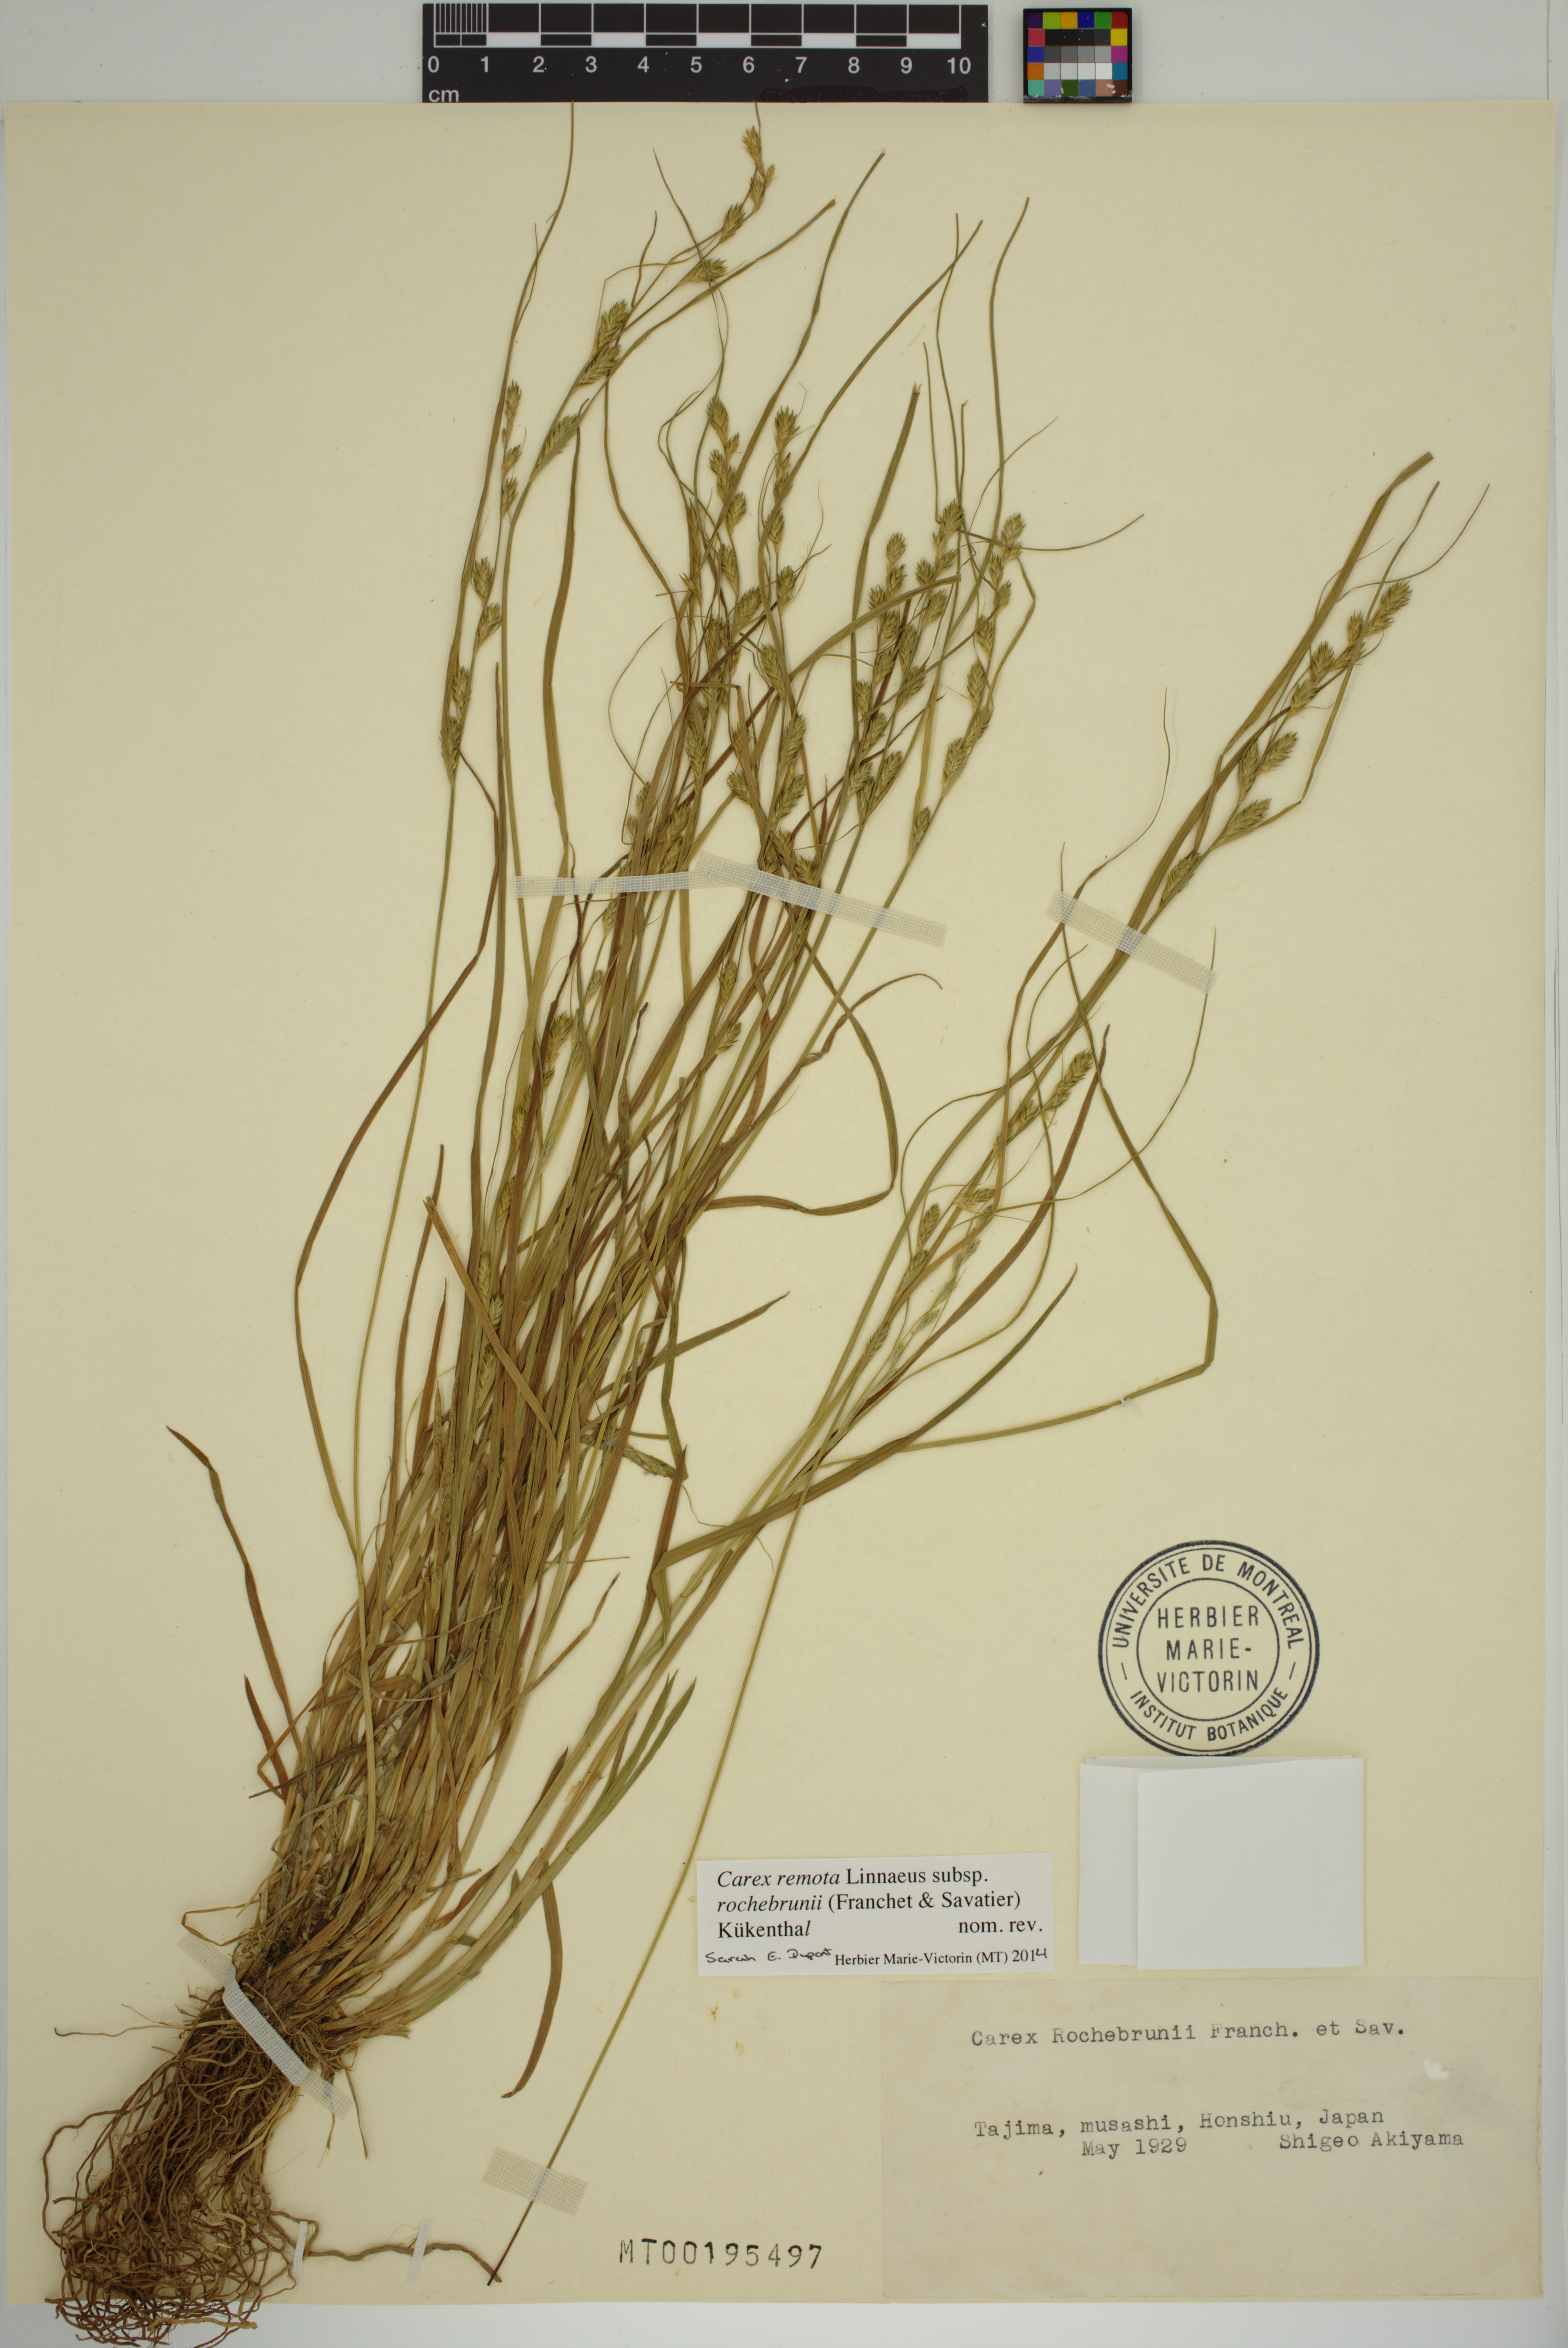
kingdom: Plantae
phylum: Tracheophyta
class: Liliopsida
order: Poales
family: Cyperaceae
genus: Carex
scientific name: Carex rochebrunei
